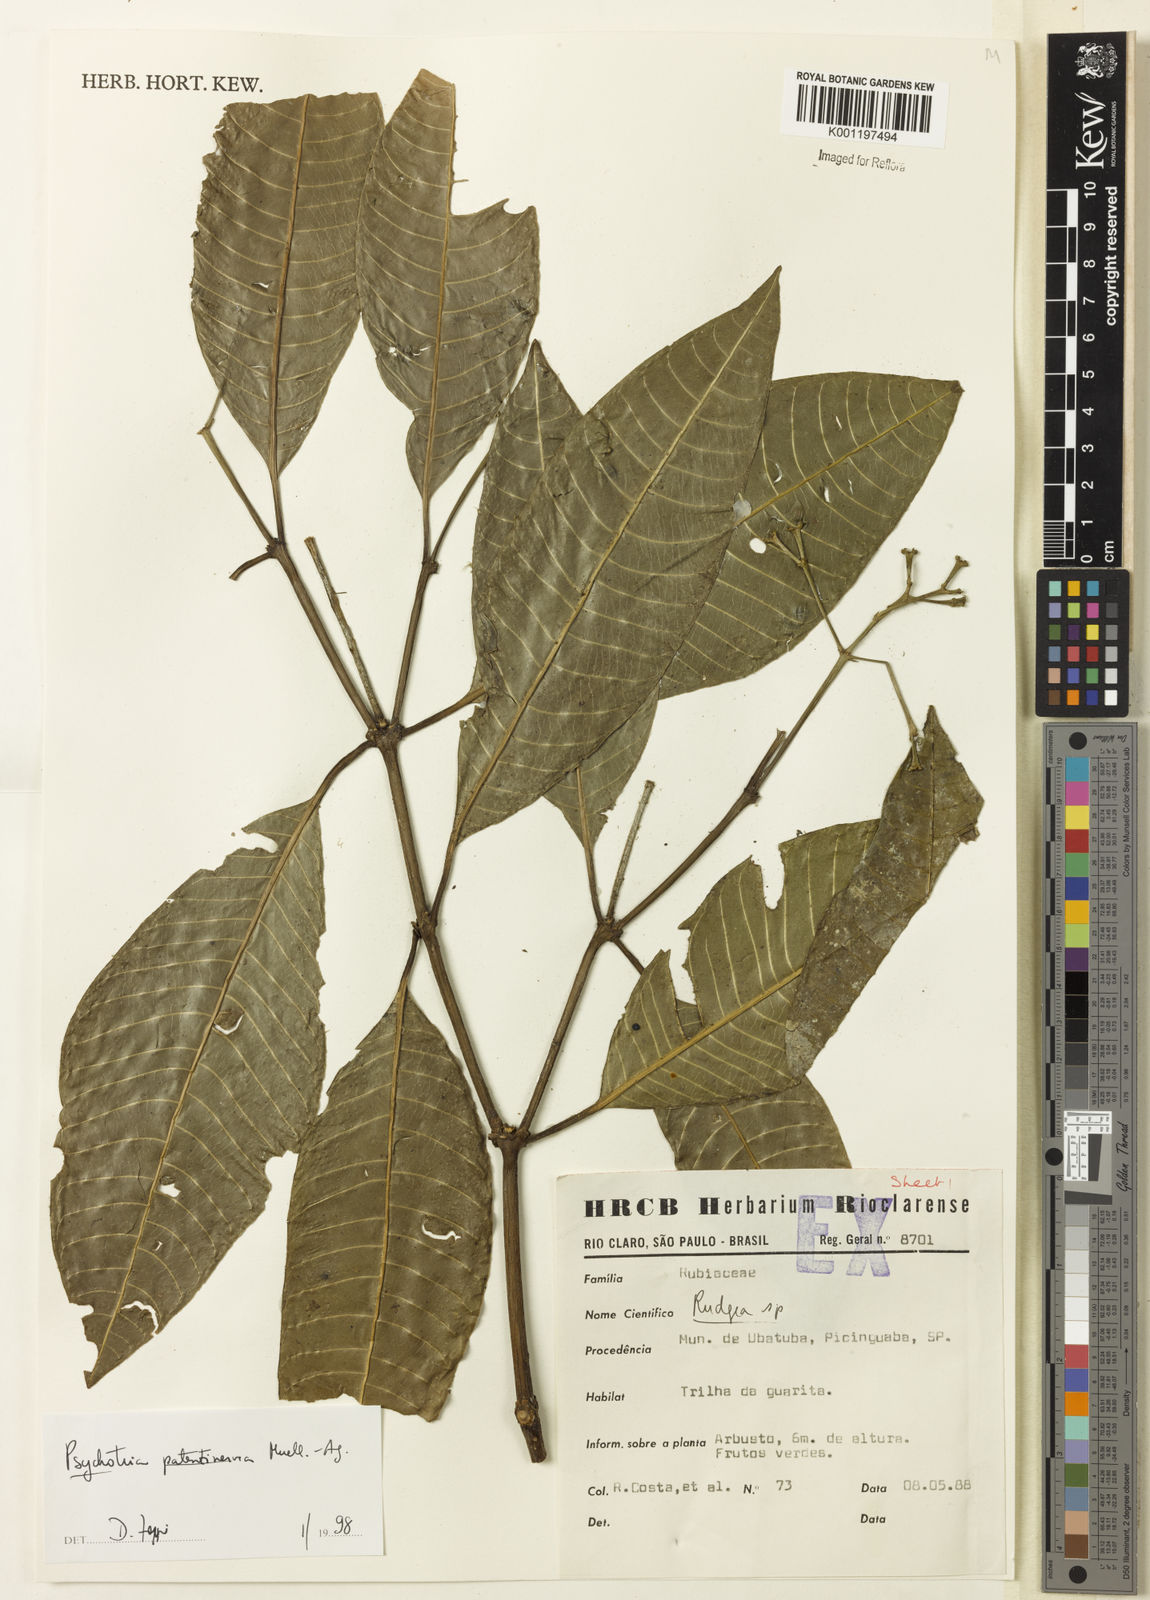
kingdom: Plantae
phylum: Tracheophyta
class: Magnoliopsida
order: Gentianales
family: Rubiaceae
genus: Psychotria
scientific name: Psychotria
